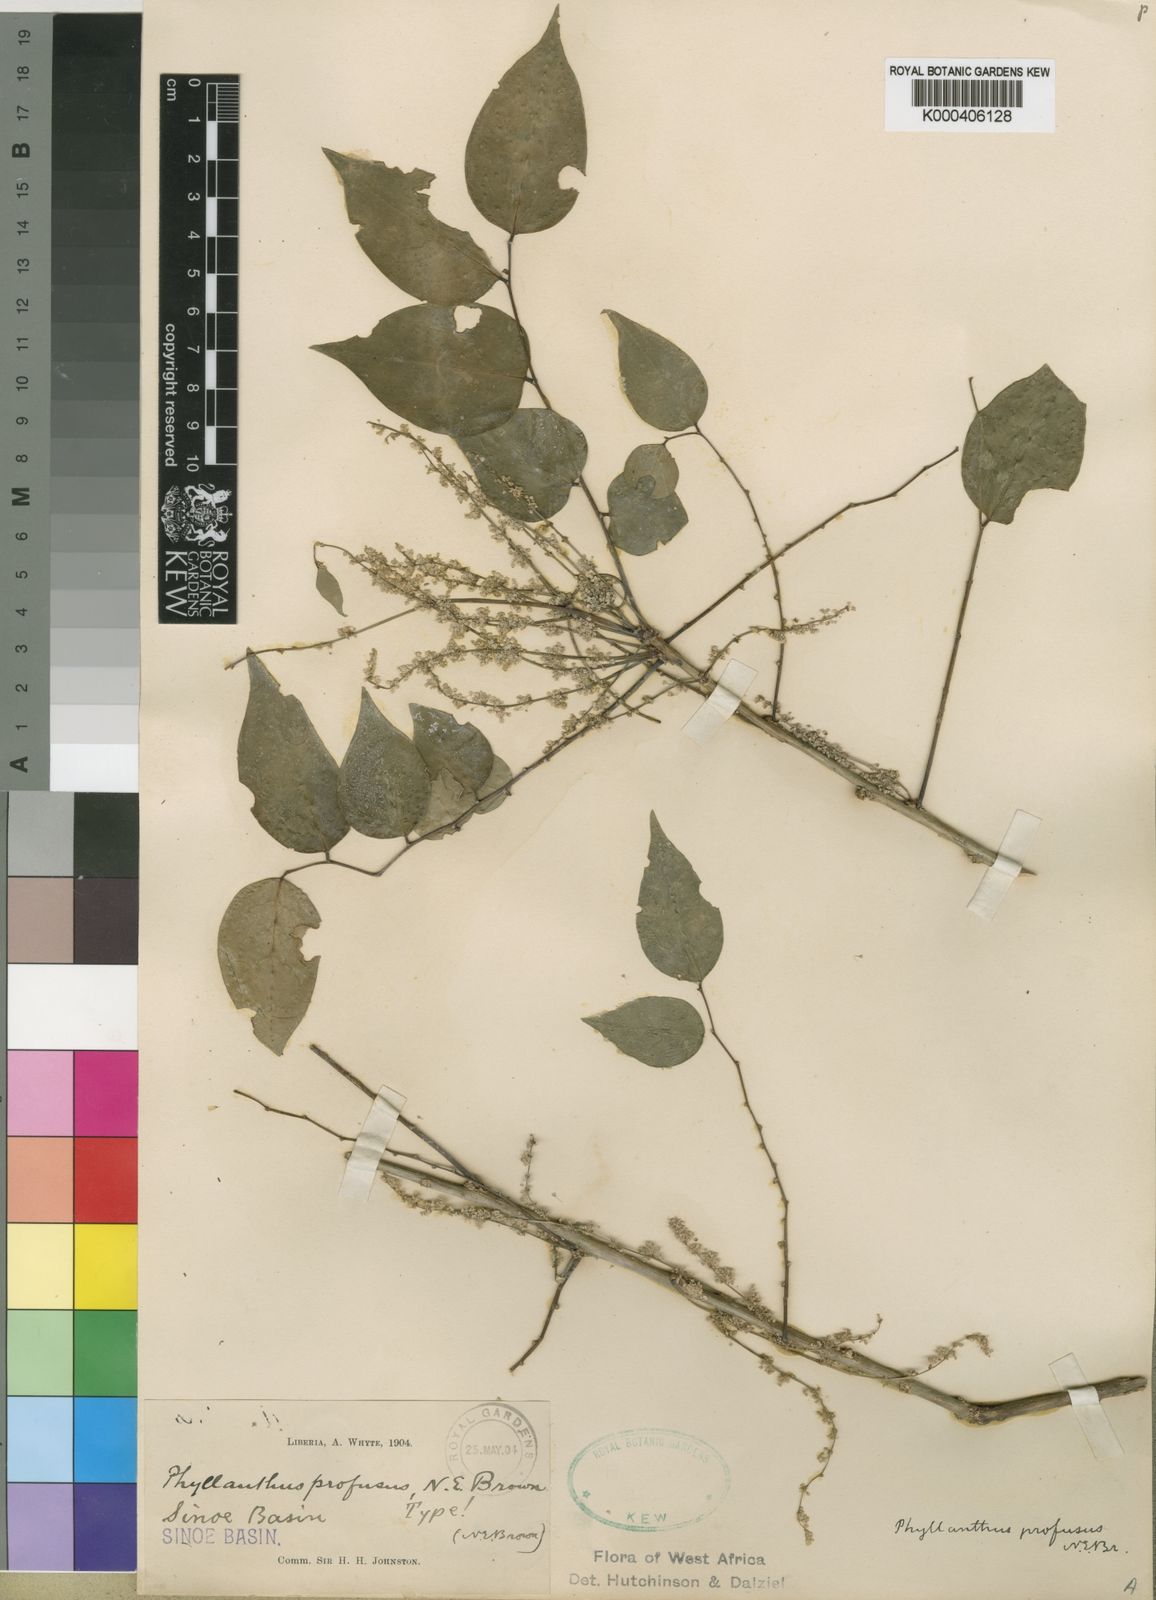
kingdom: Plantae
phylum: Tracheophyta
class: Magnoliopsida
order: Malpighiales
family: Phyllanthaceae
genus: Phyllanthus
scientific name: Phyllanthus profusus
